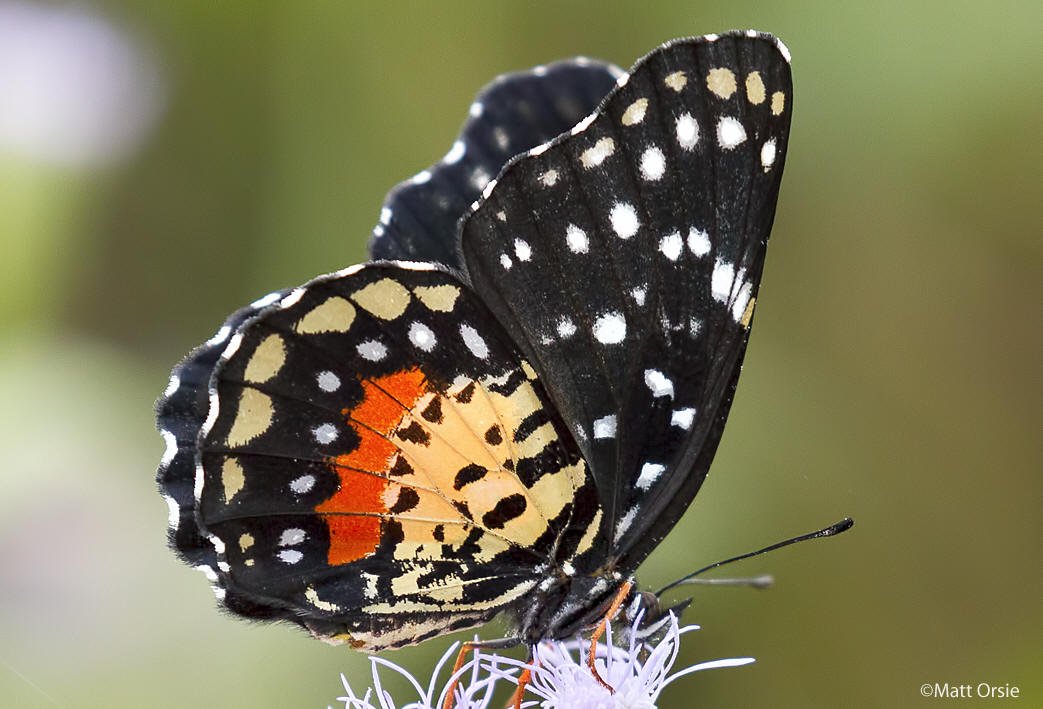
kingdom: Animalia
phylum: Arthropoda
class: Insecta
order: Lepidoptera
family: Nymphalidae
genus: Chlosyne
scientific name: Chlosyne janais
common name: Crimson Patch
